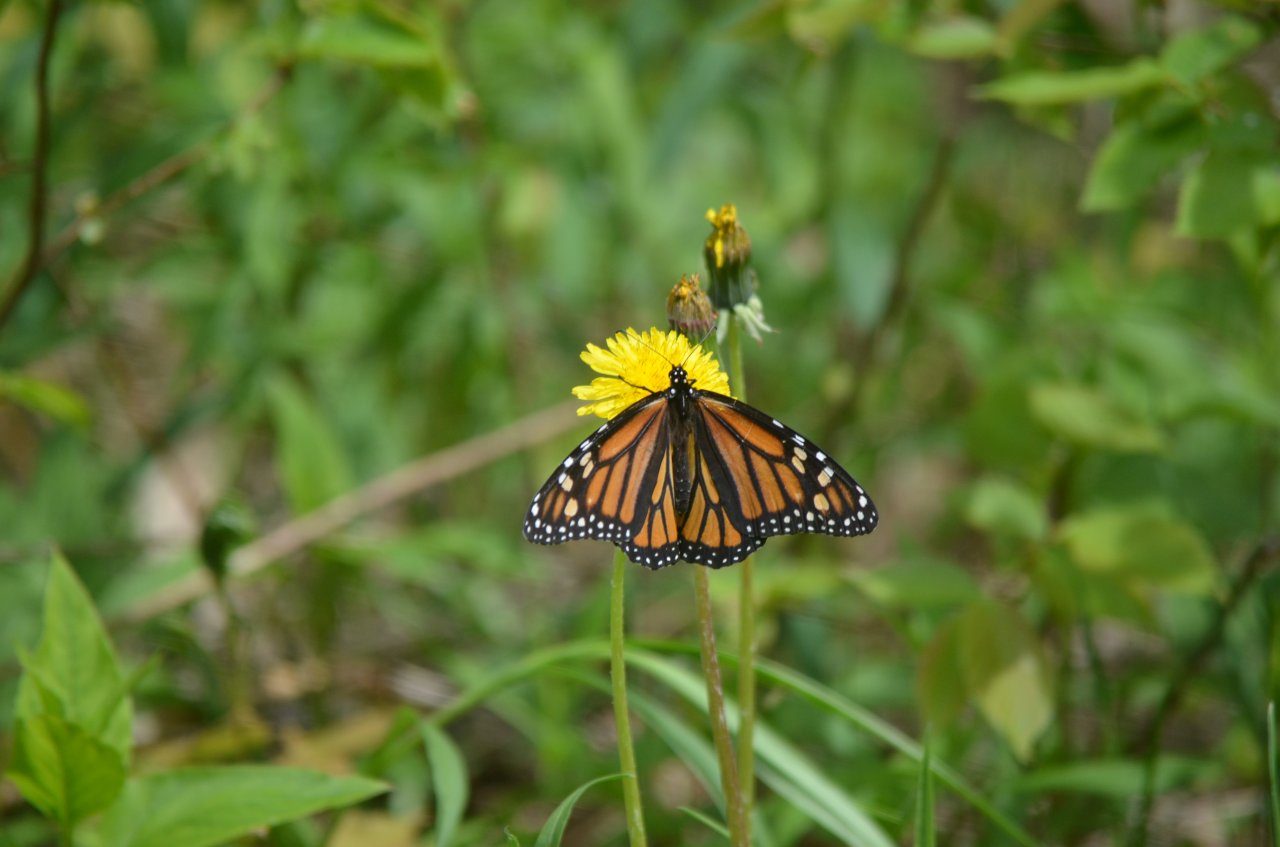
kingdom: Animalia
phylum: Arthropoda
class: Insecta
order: Lepidoptera
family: Nymphalidae
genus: Danaus
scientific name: Danaus plexippus
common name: Monarch
